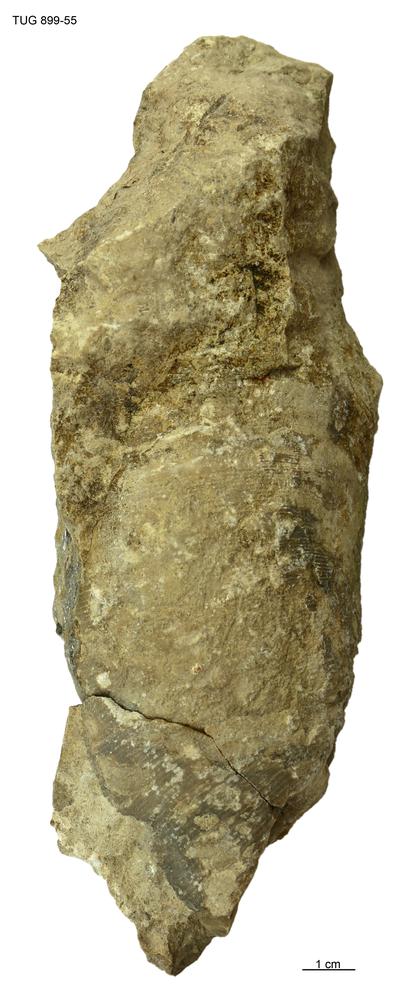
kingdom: Animalia
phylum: Mollusca
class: Cephalopoda
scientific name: Cephalopoda
